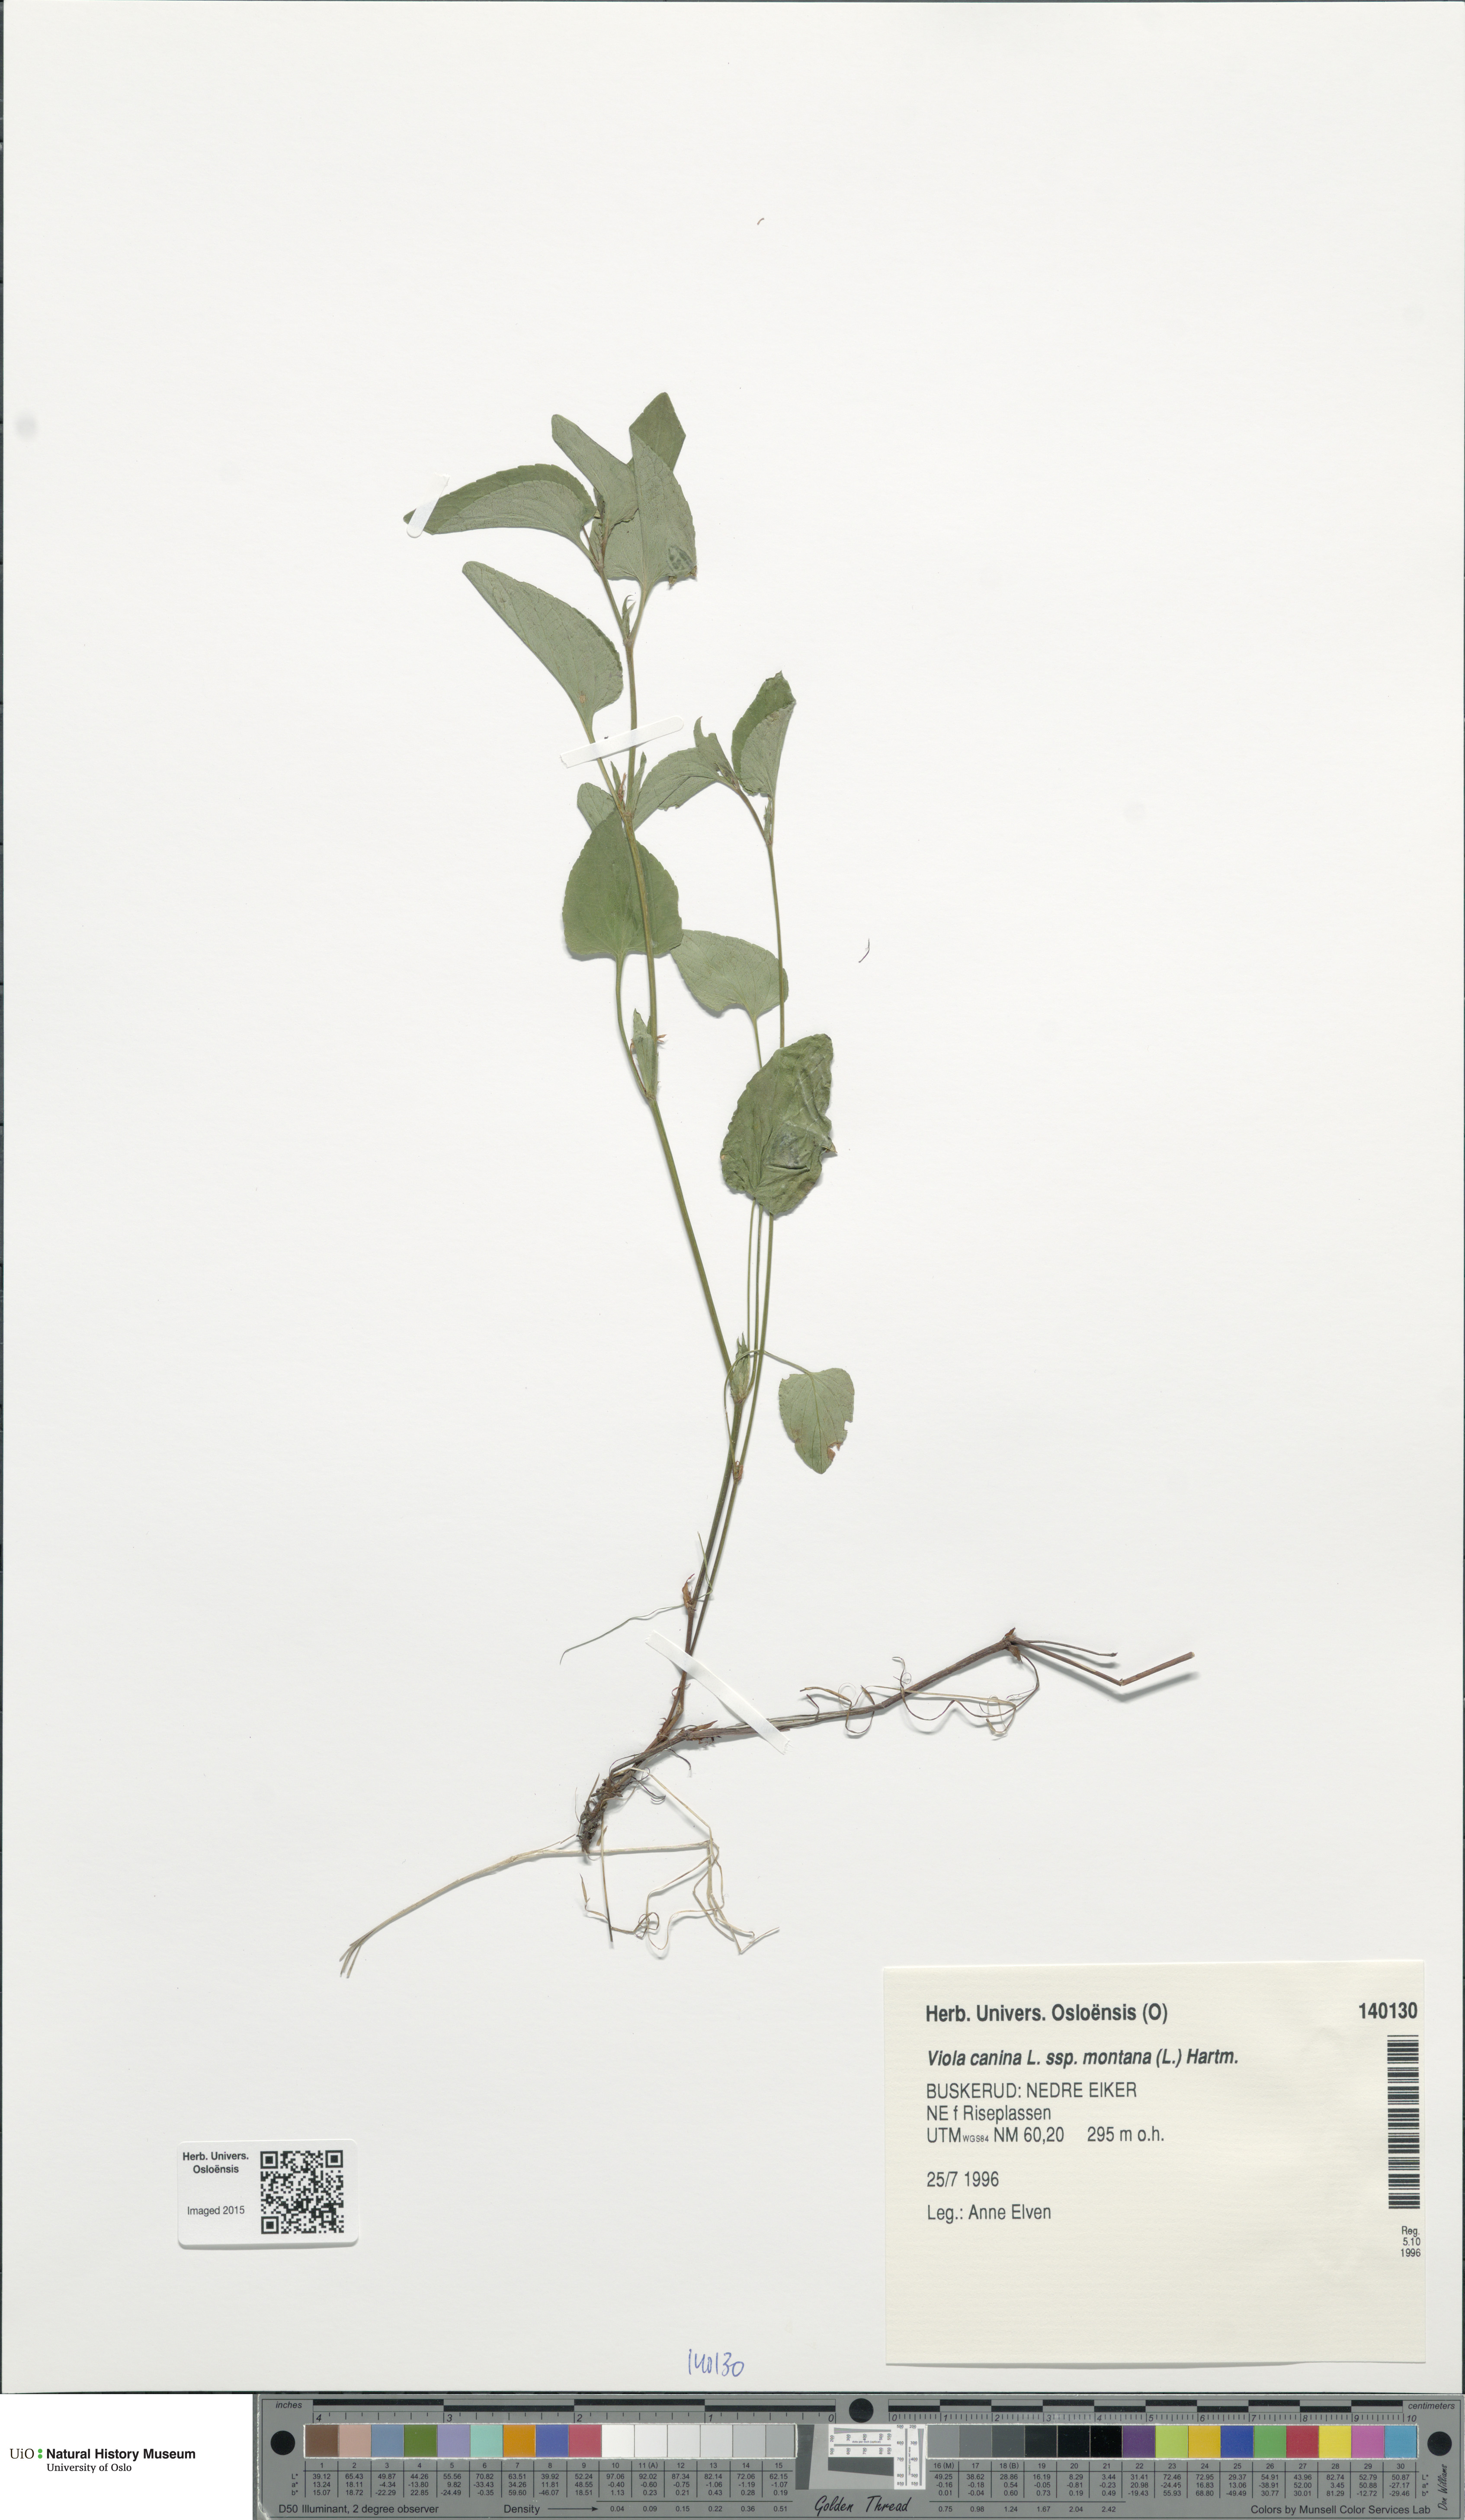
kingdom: Plantae
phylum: Tracheophyta
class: Magnoliopsida
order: Malpighiales
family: Violaceae
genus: Viola
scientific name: Viola ruppii
